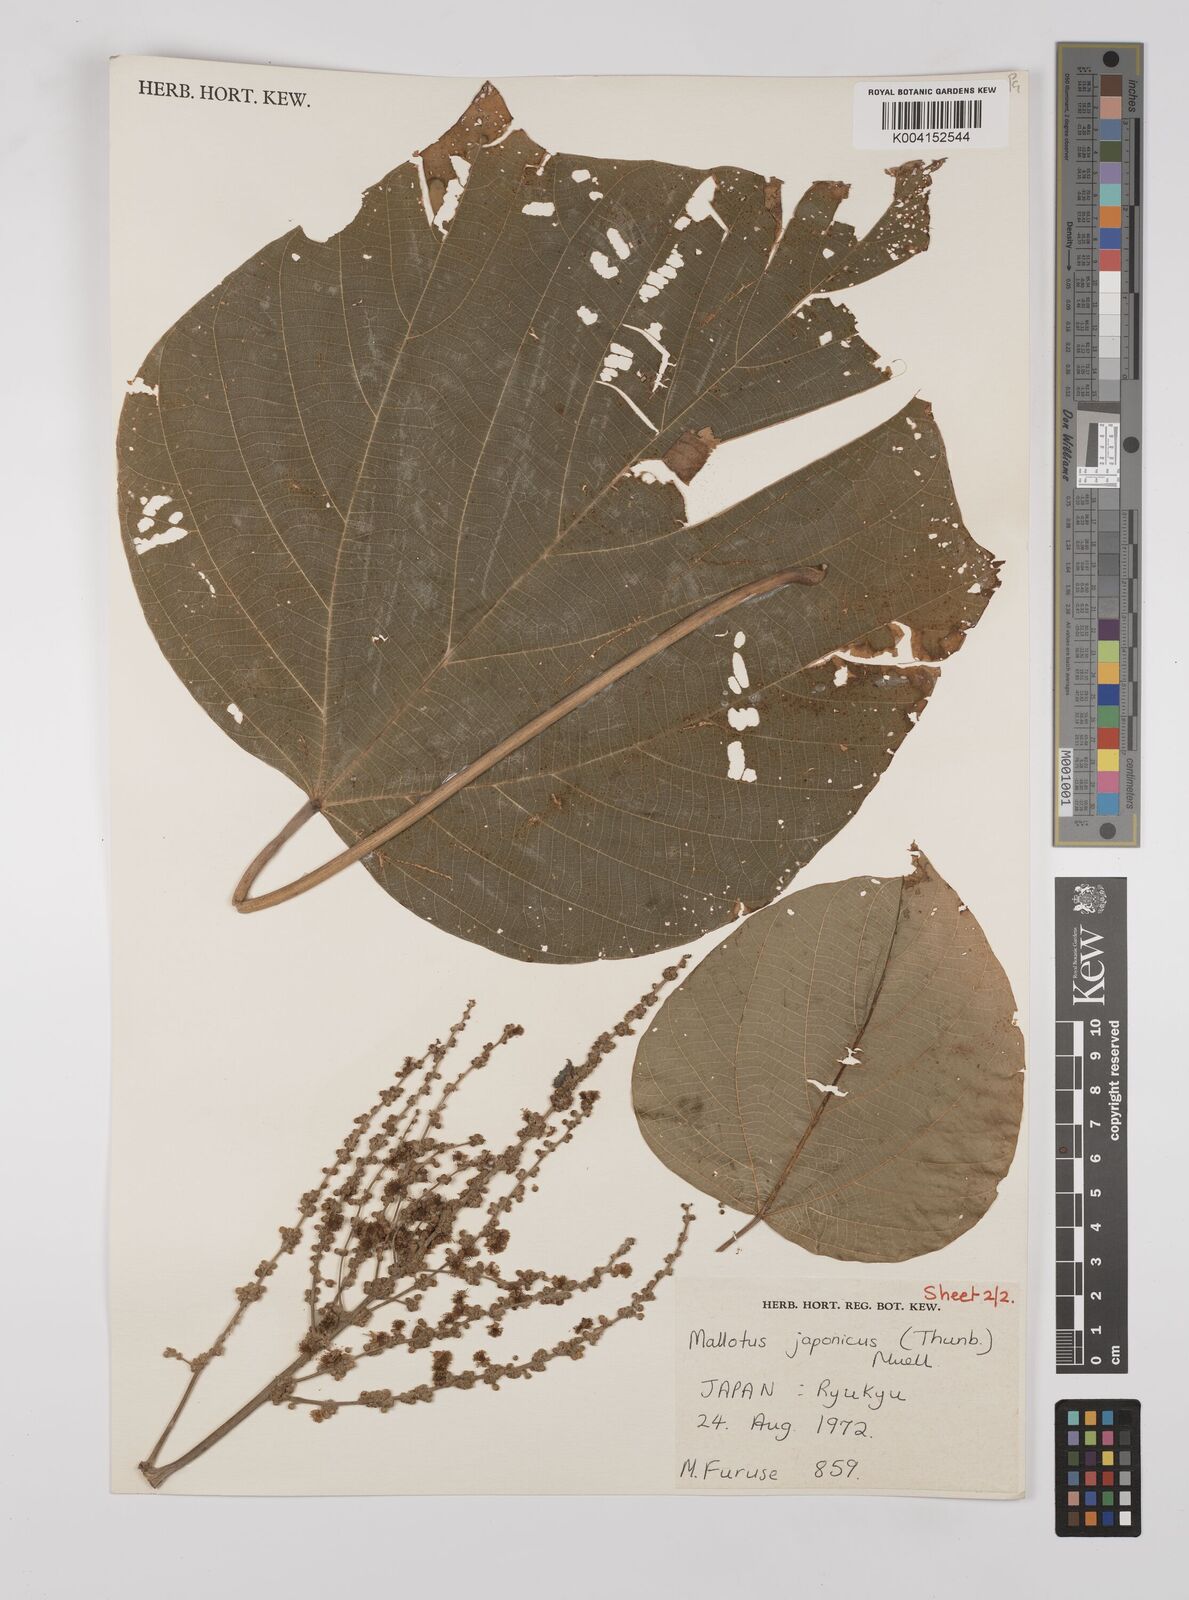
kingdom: Plantae
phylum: Tracheophyta
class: Magnoliopsida
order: Malpighiales
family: Euphorbiaceae
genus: Mallotus
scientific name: Mallotus japonicus
